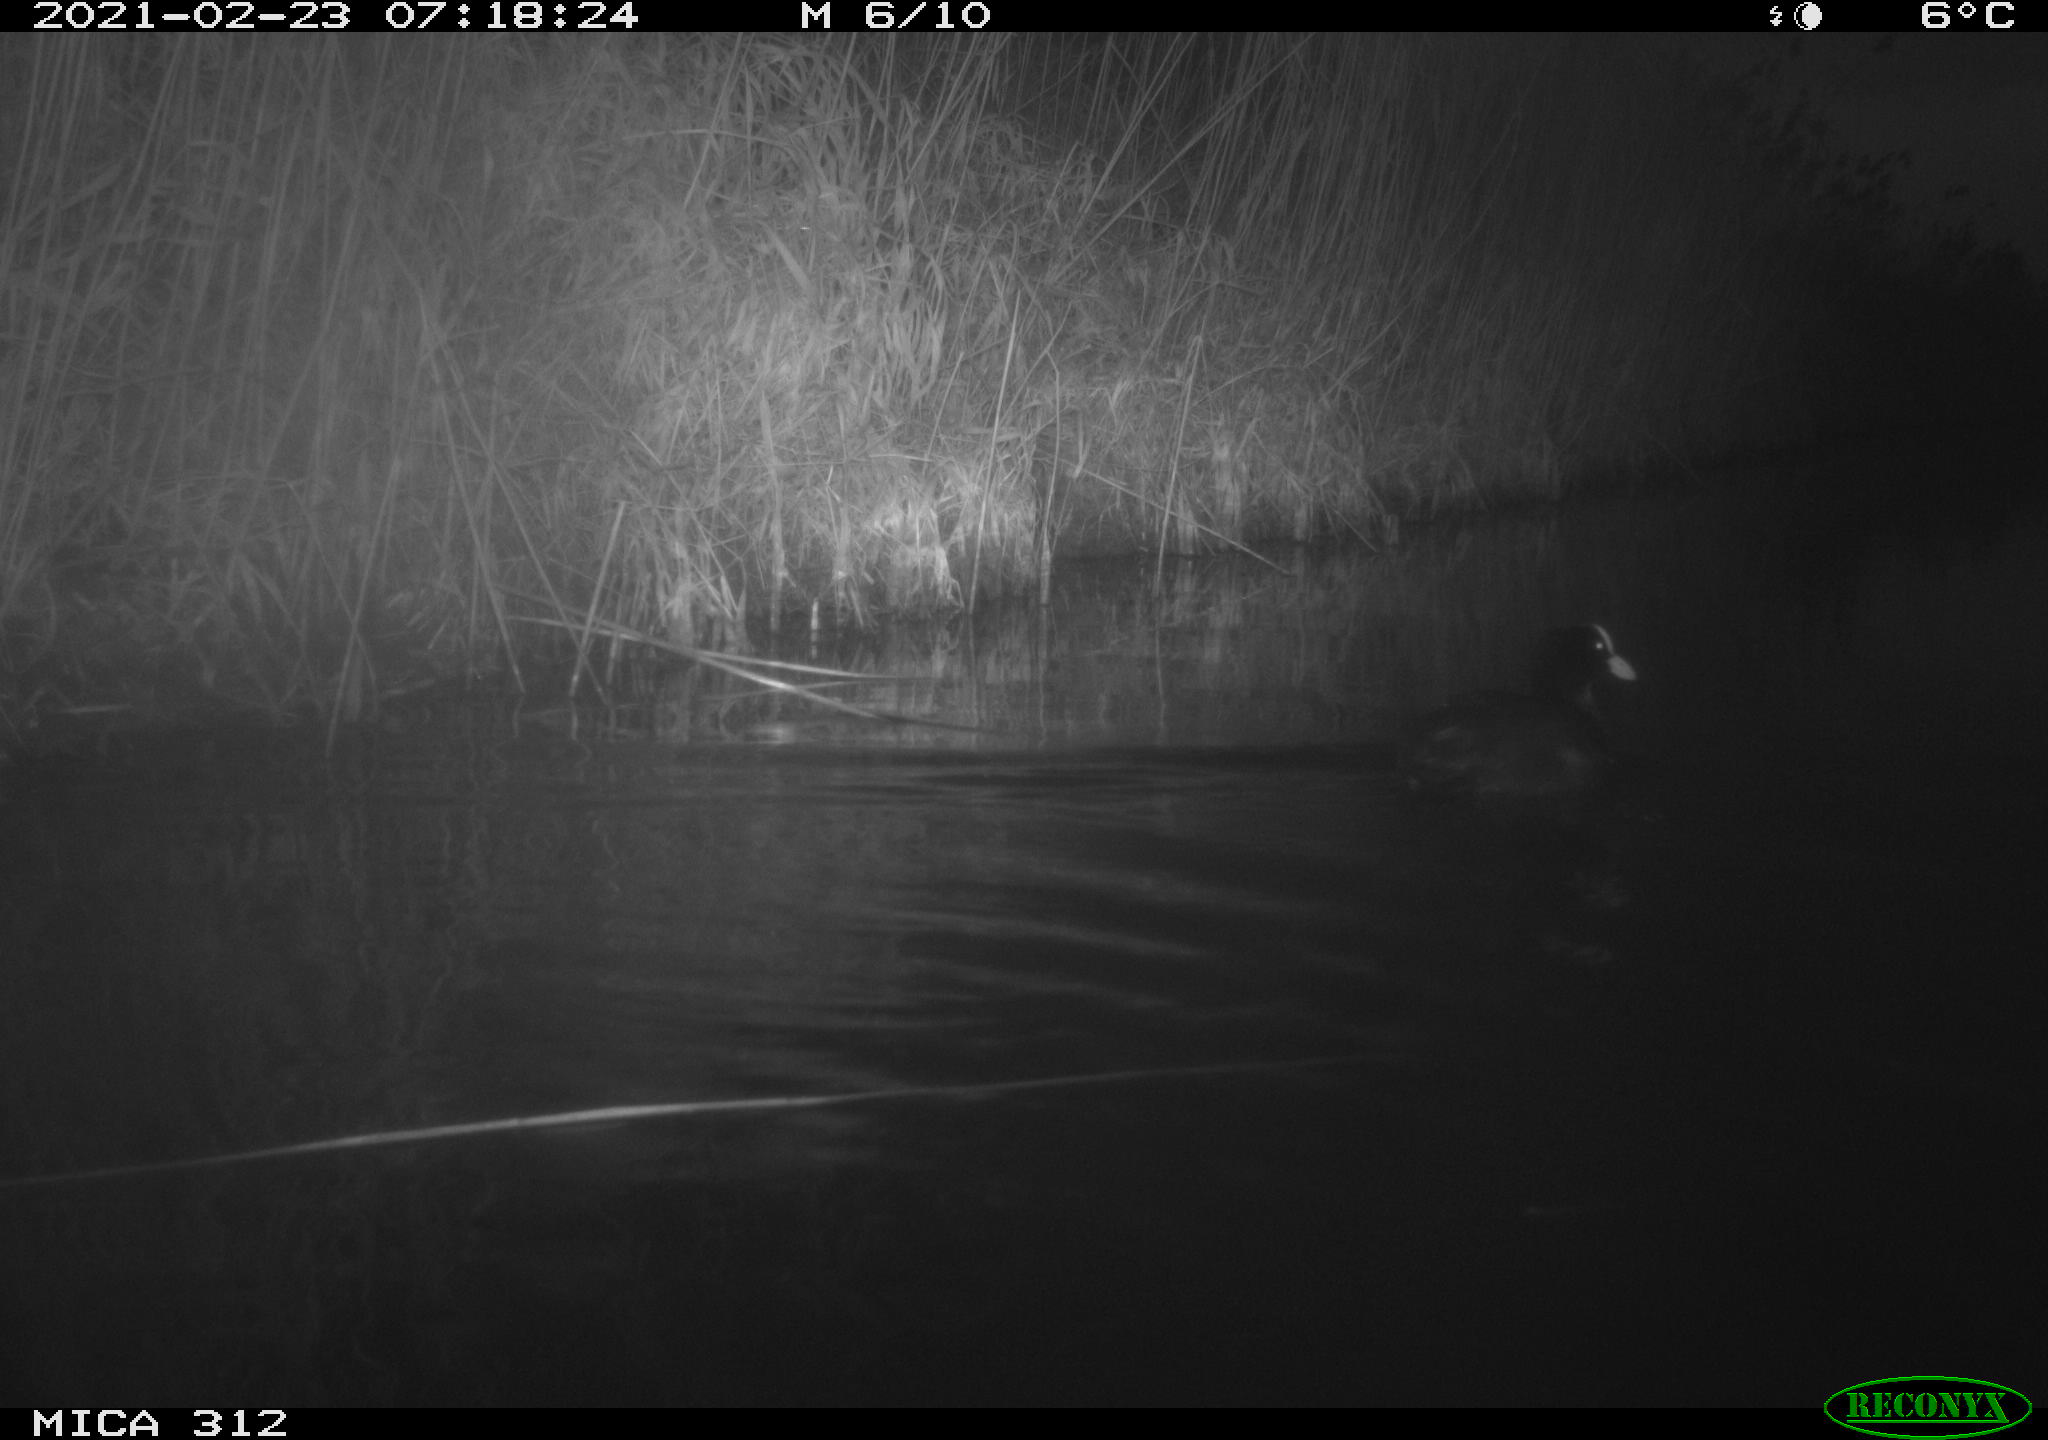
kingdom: Animalia
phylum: Chordata
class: Aves
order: Gruiformes
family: Rallidae
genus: Fulica
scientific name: Fulica atra
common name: Eurasian coot
